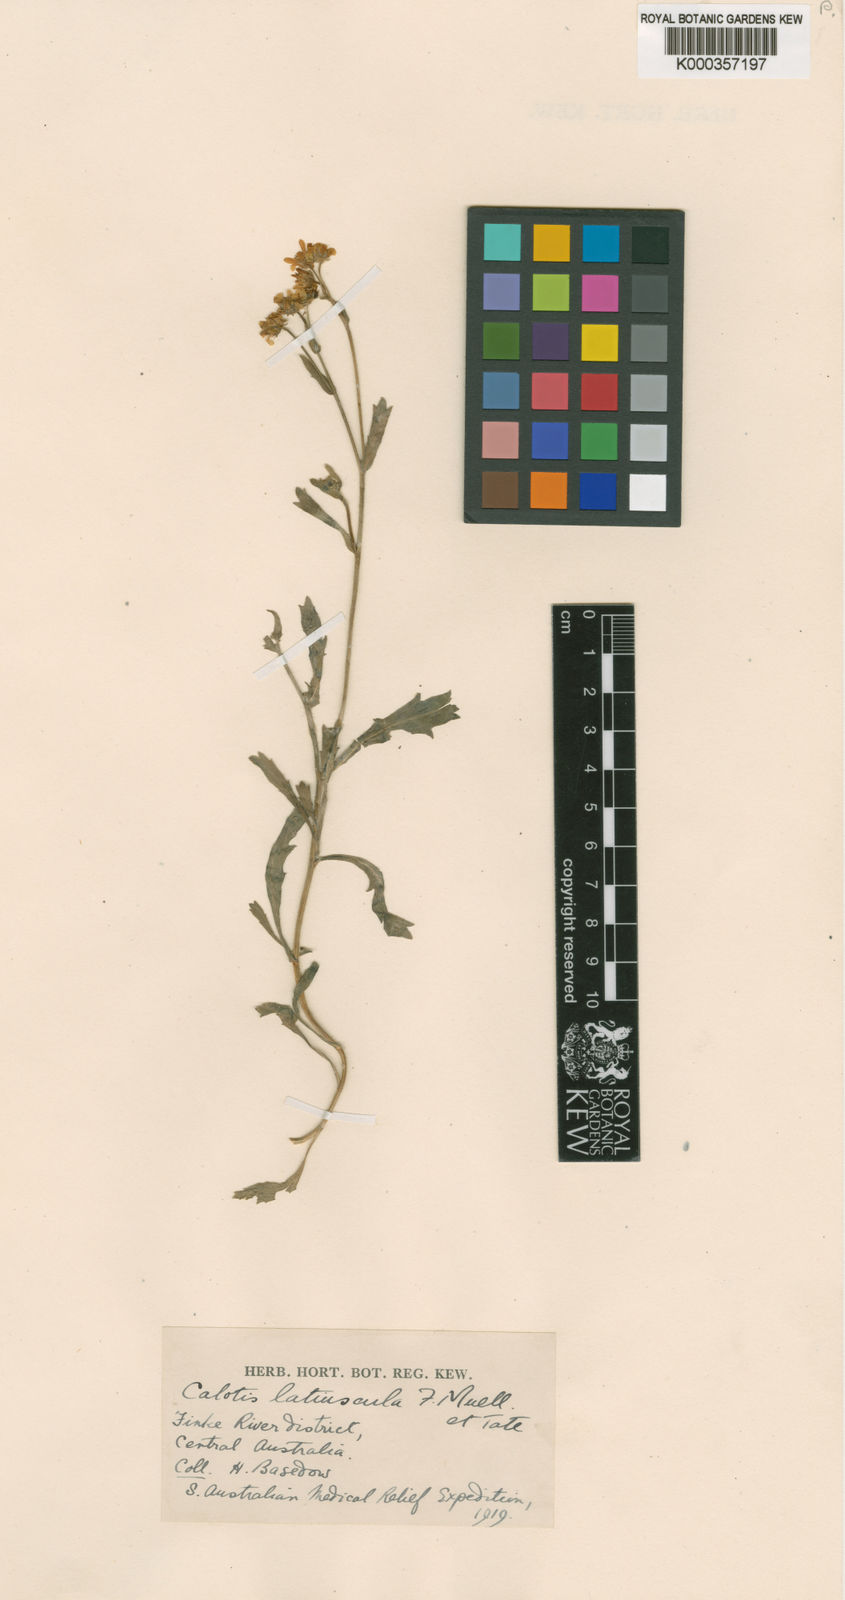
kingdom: Plantae
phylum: Tracheophyta
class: Magnoliopsida
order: Asterales
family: Asteraceae
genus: Calotis
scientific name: Calotis latiuscula
